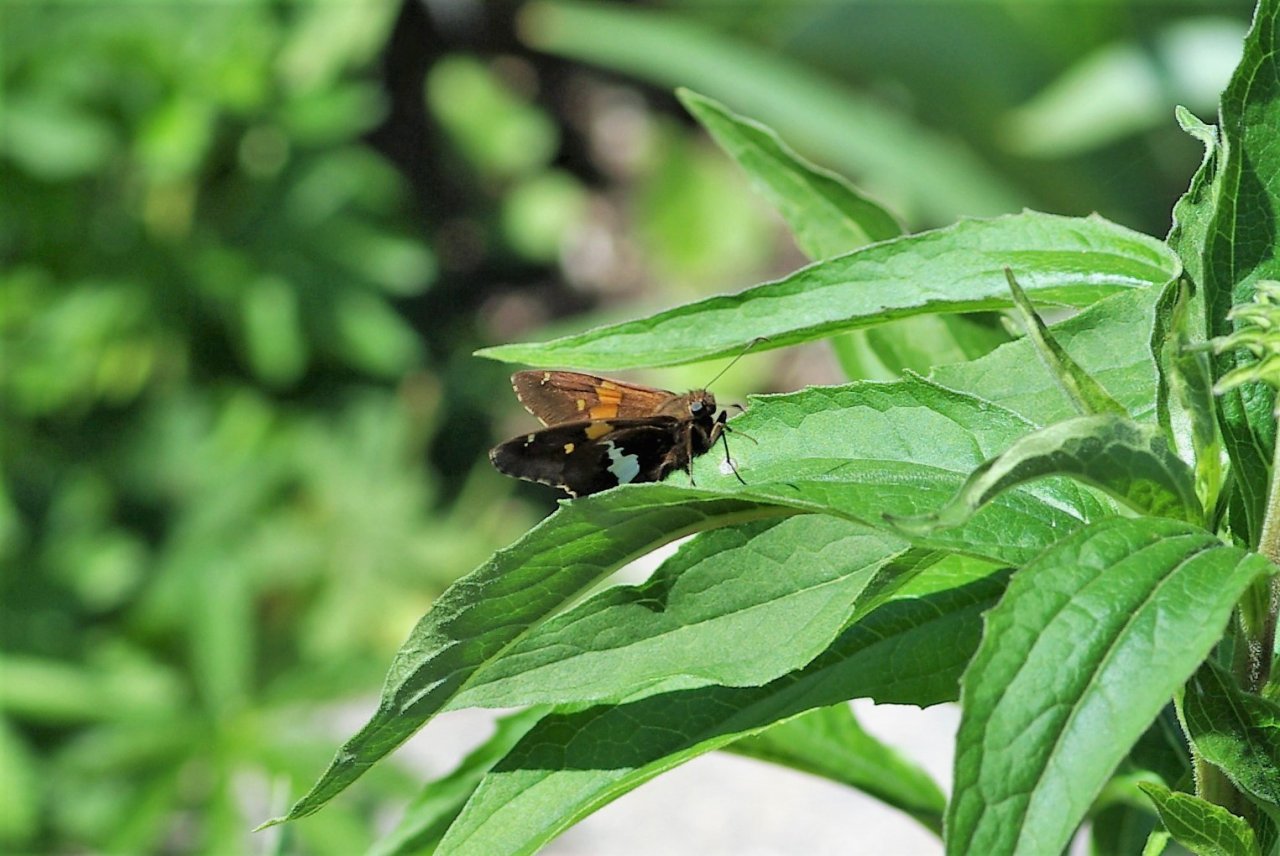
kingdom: Animalia
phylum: Arthropoda
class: Insecta
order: Lepidoptera
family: Hesperiidae
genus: Epargyreus
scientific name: Epargyreus clarus
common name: Silver-spotted Skipper
